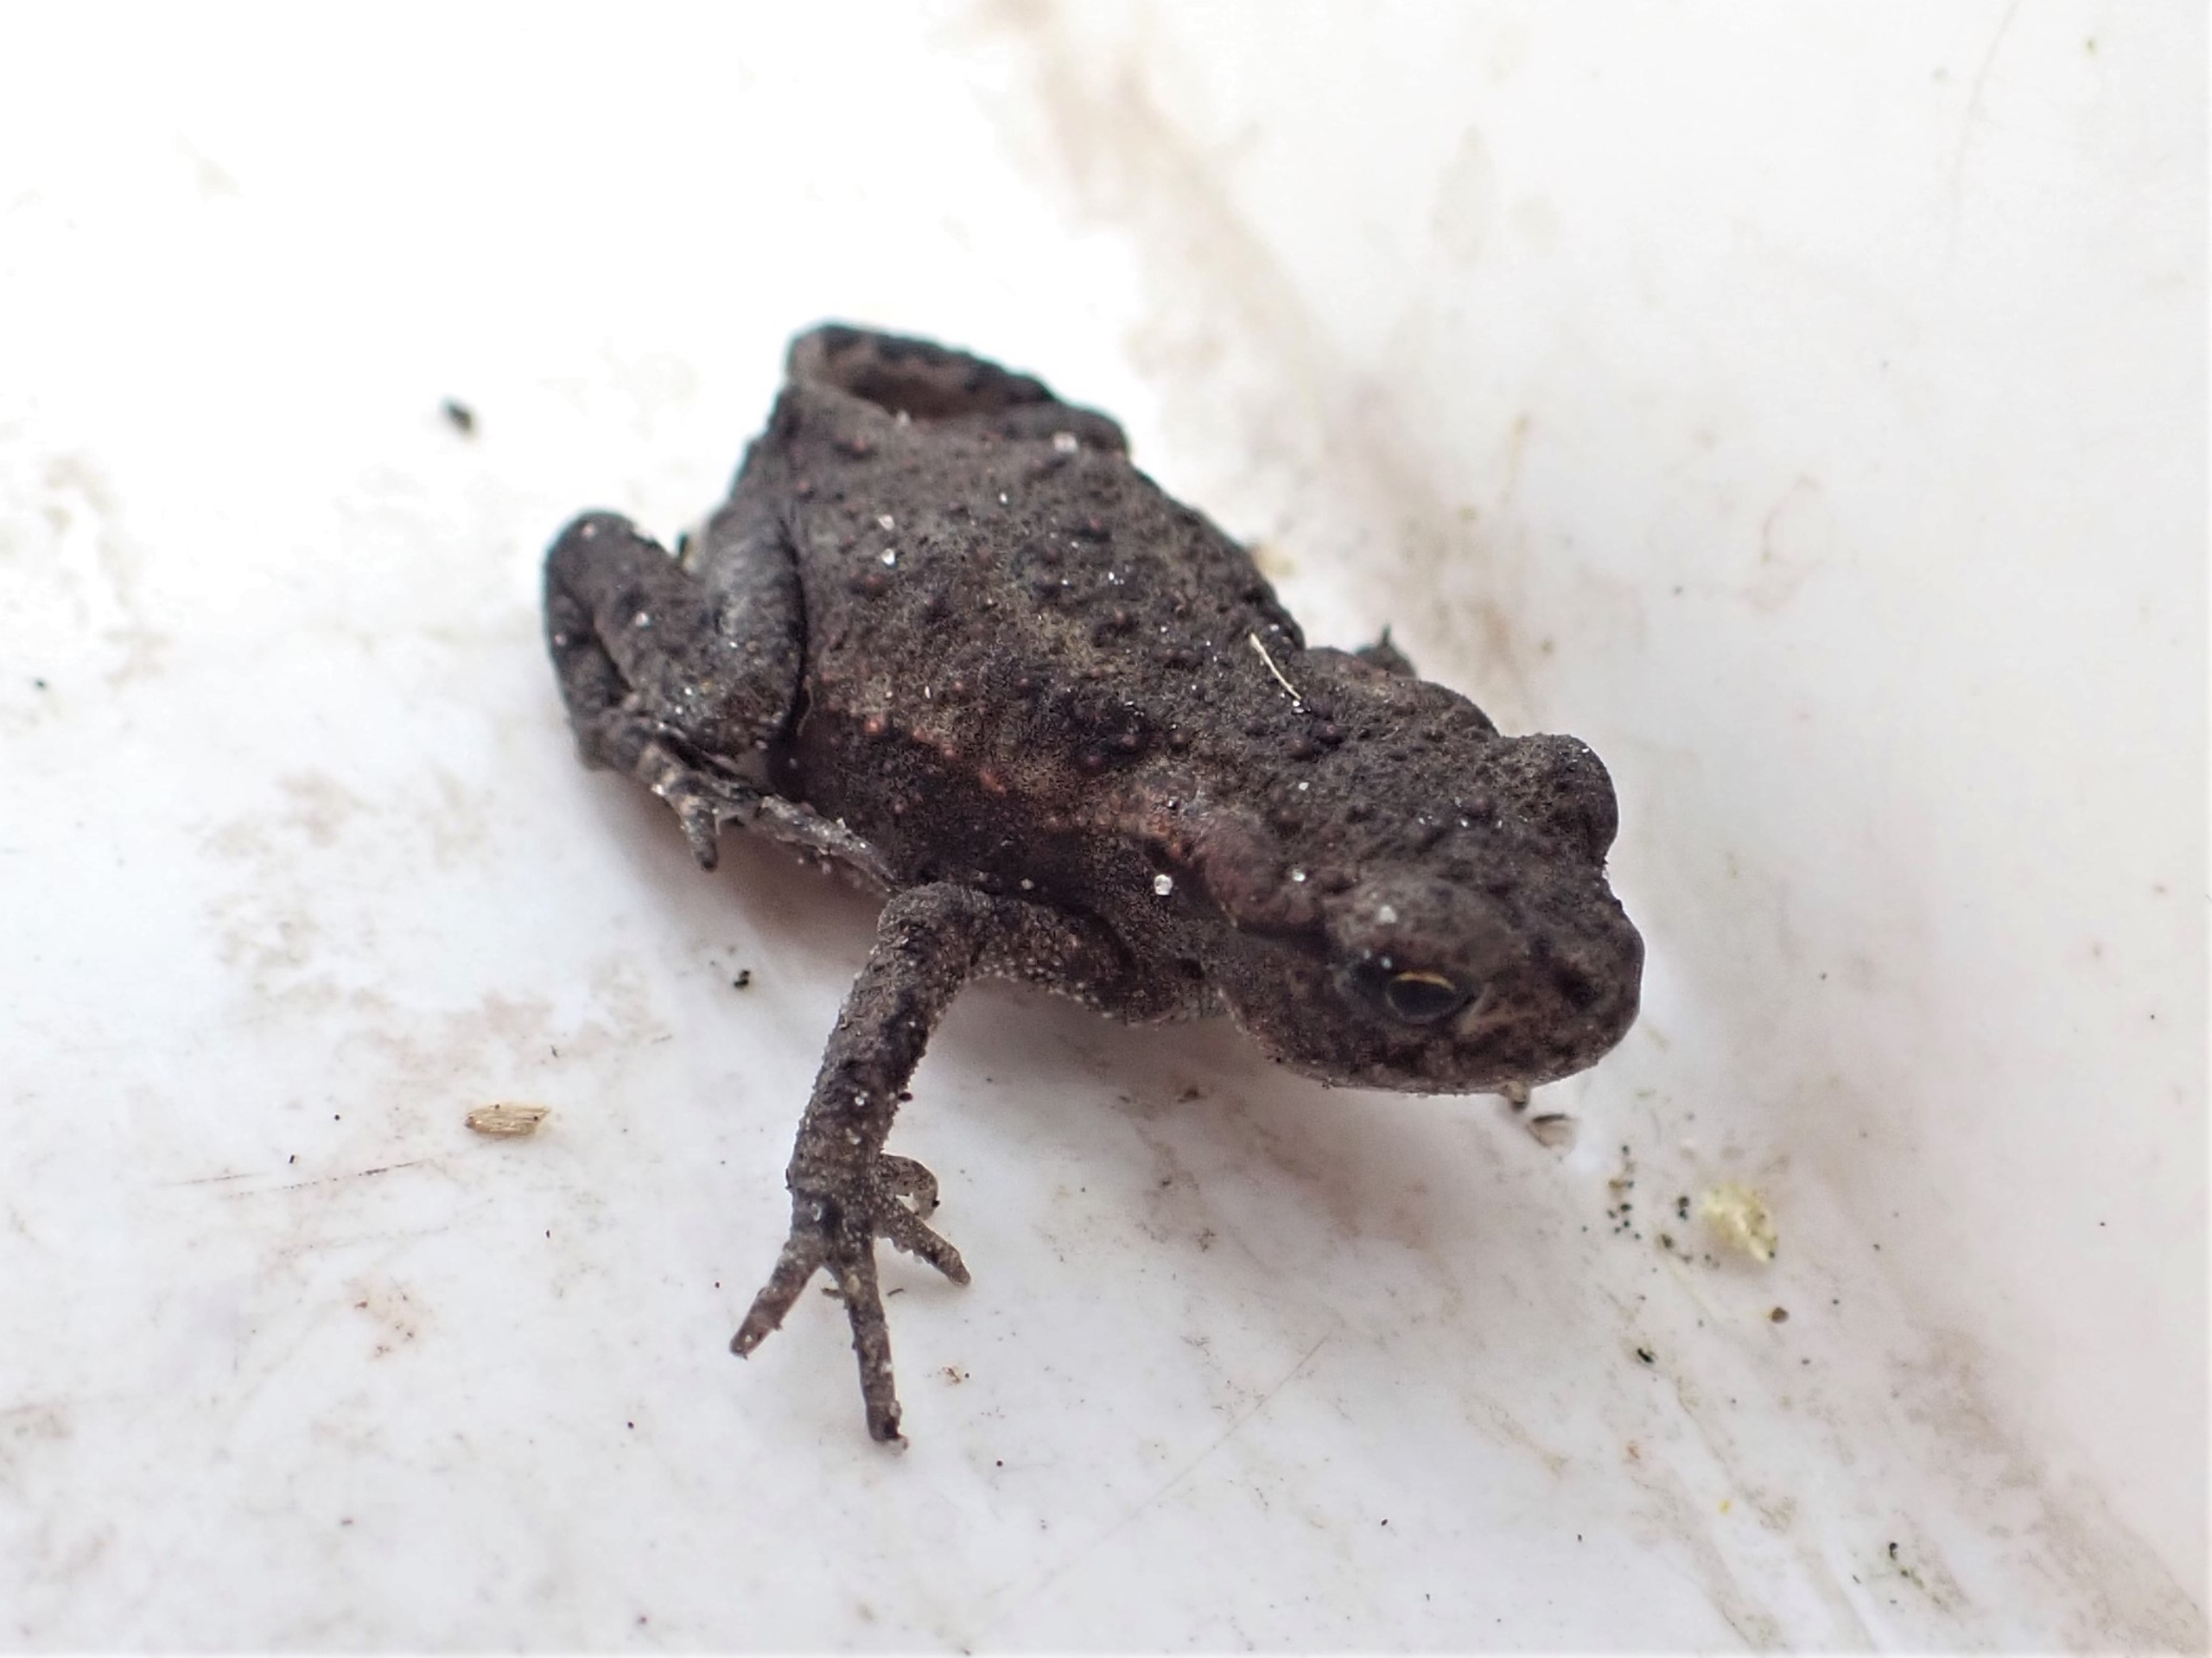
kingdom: Animalia
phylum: Chordata
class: Amphibia
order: Anura
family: Bufonidae
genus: Bufo
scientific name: Bufo bufo
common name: Skrubtudse
